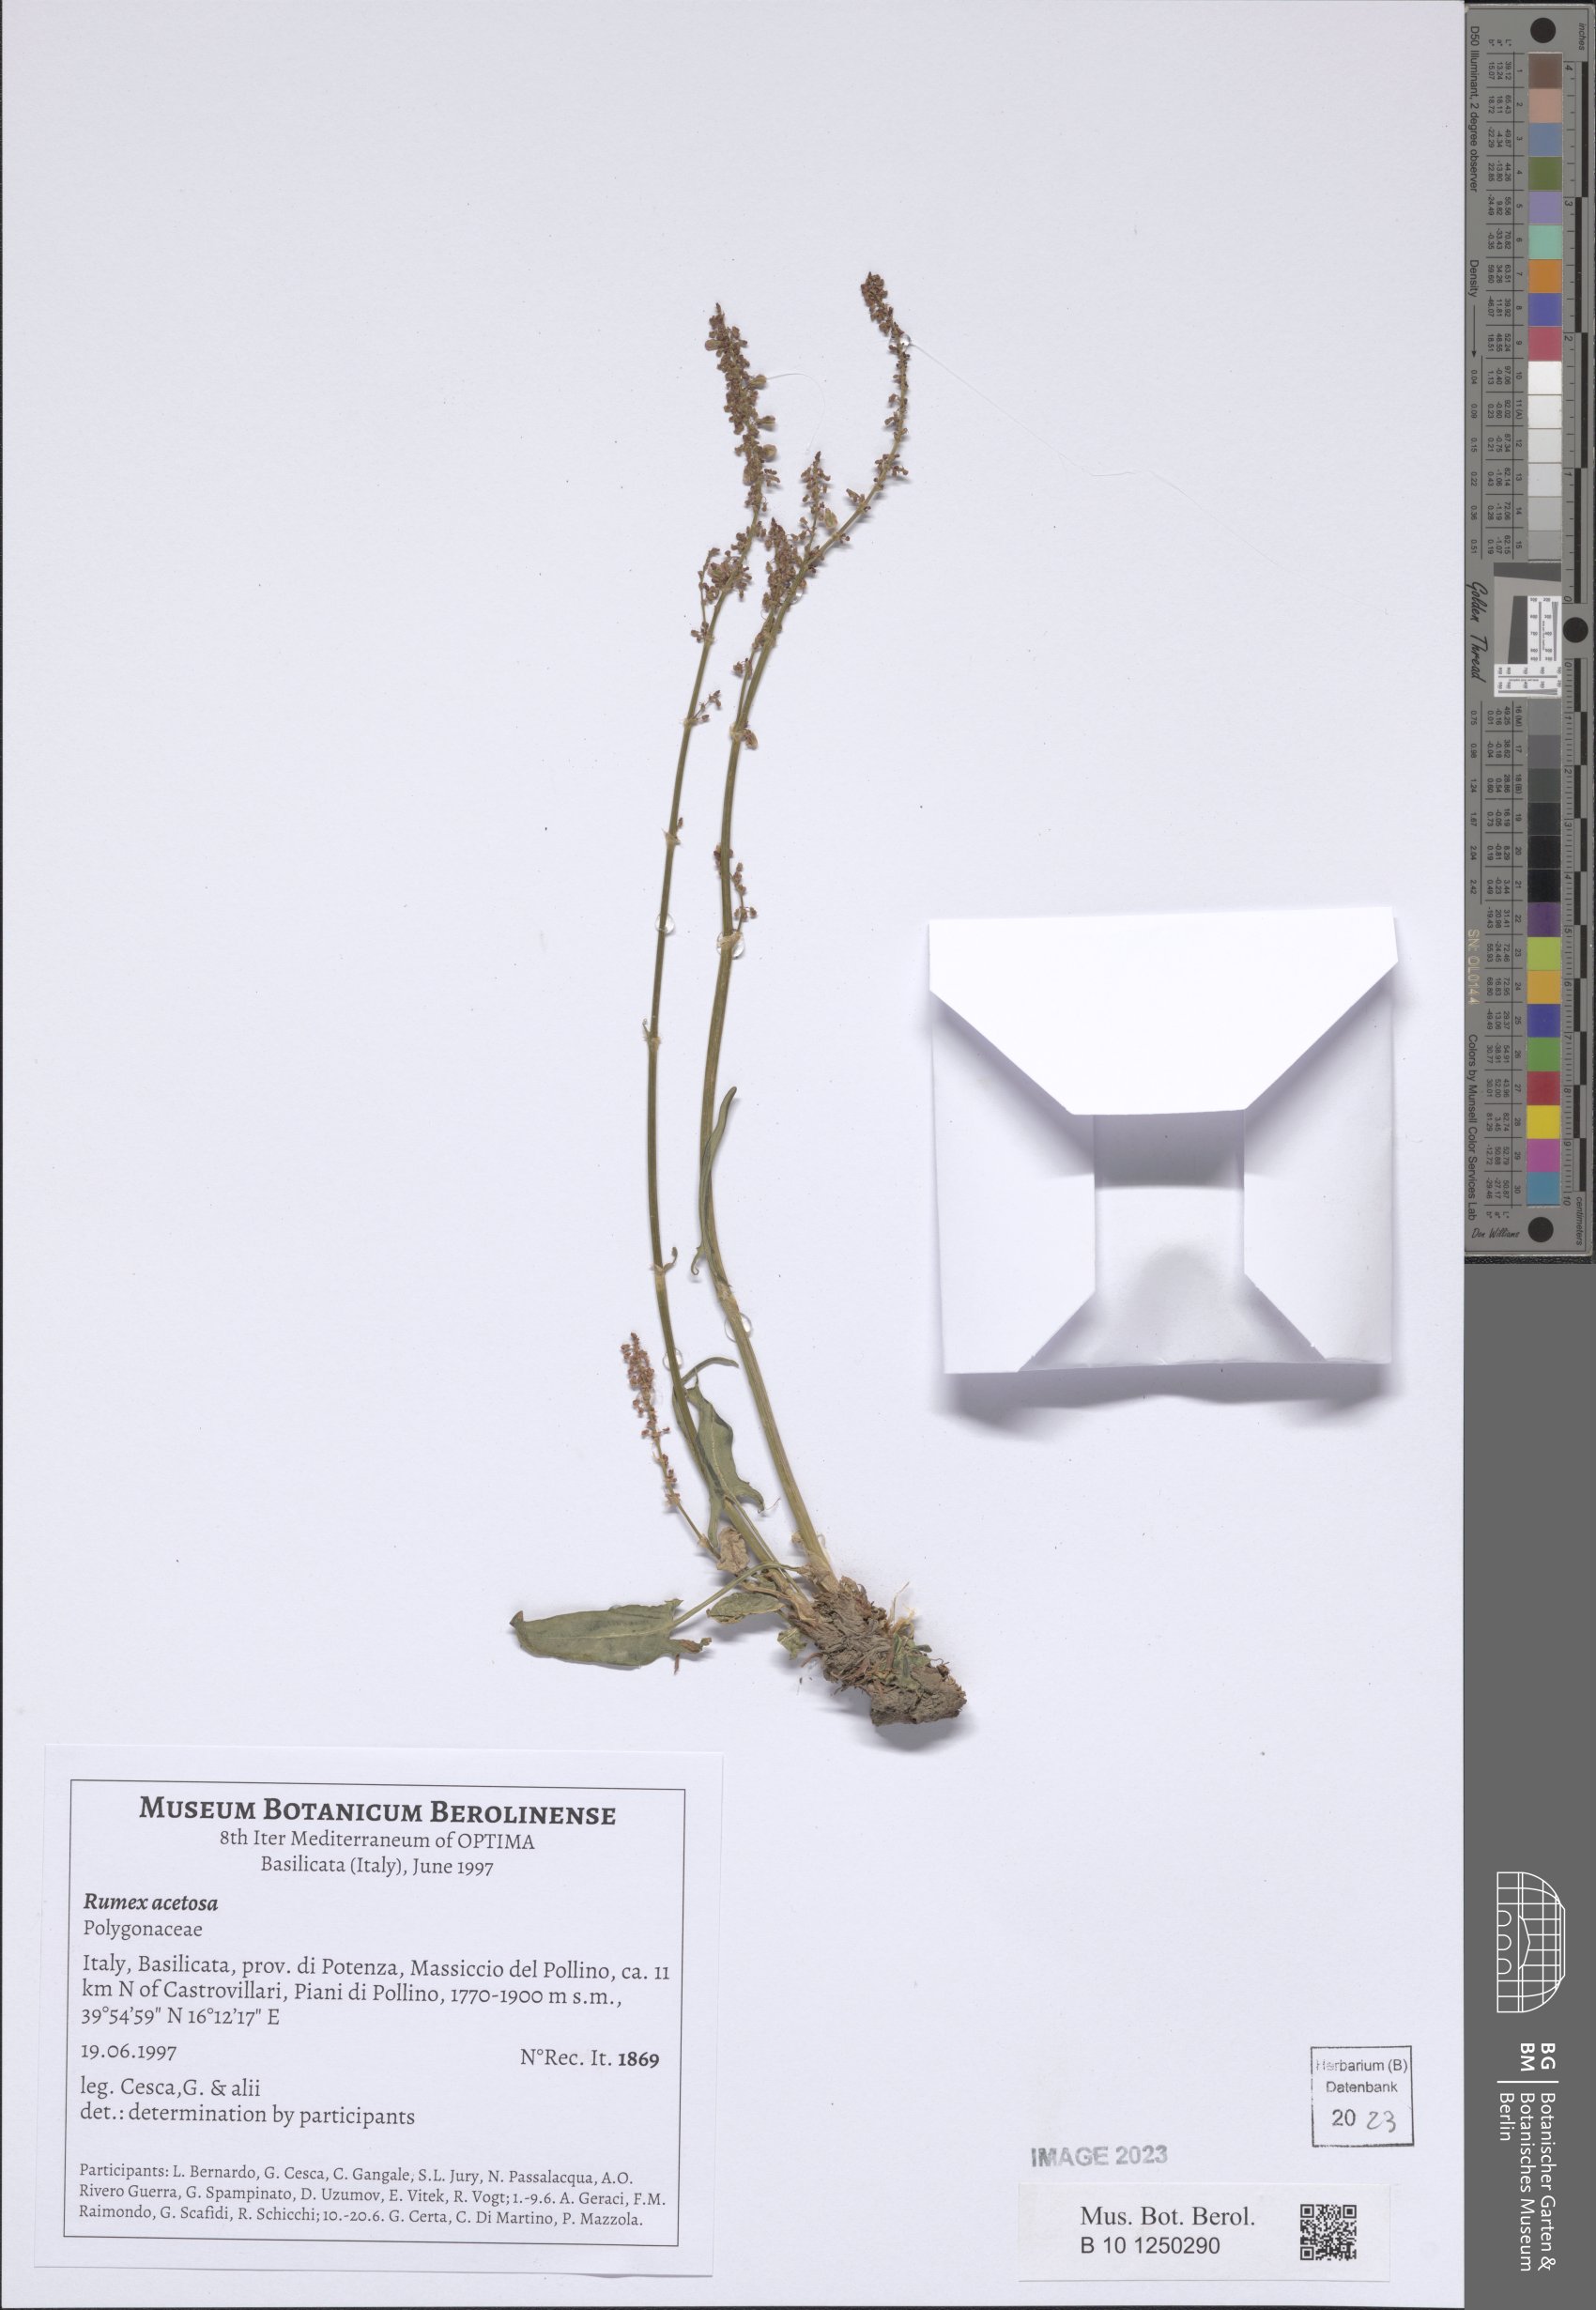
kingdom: Plantae
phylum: Tracheophyta
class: Magnoliopsida
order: Caryophyllales
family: Polygonaceae
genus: Rumex
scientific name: Rumex acetosa
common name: Garden sorrel
